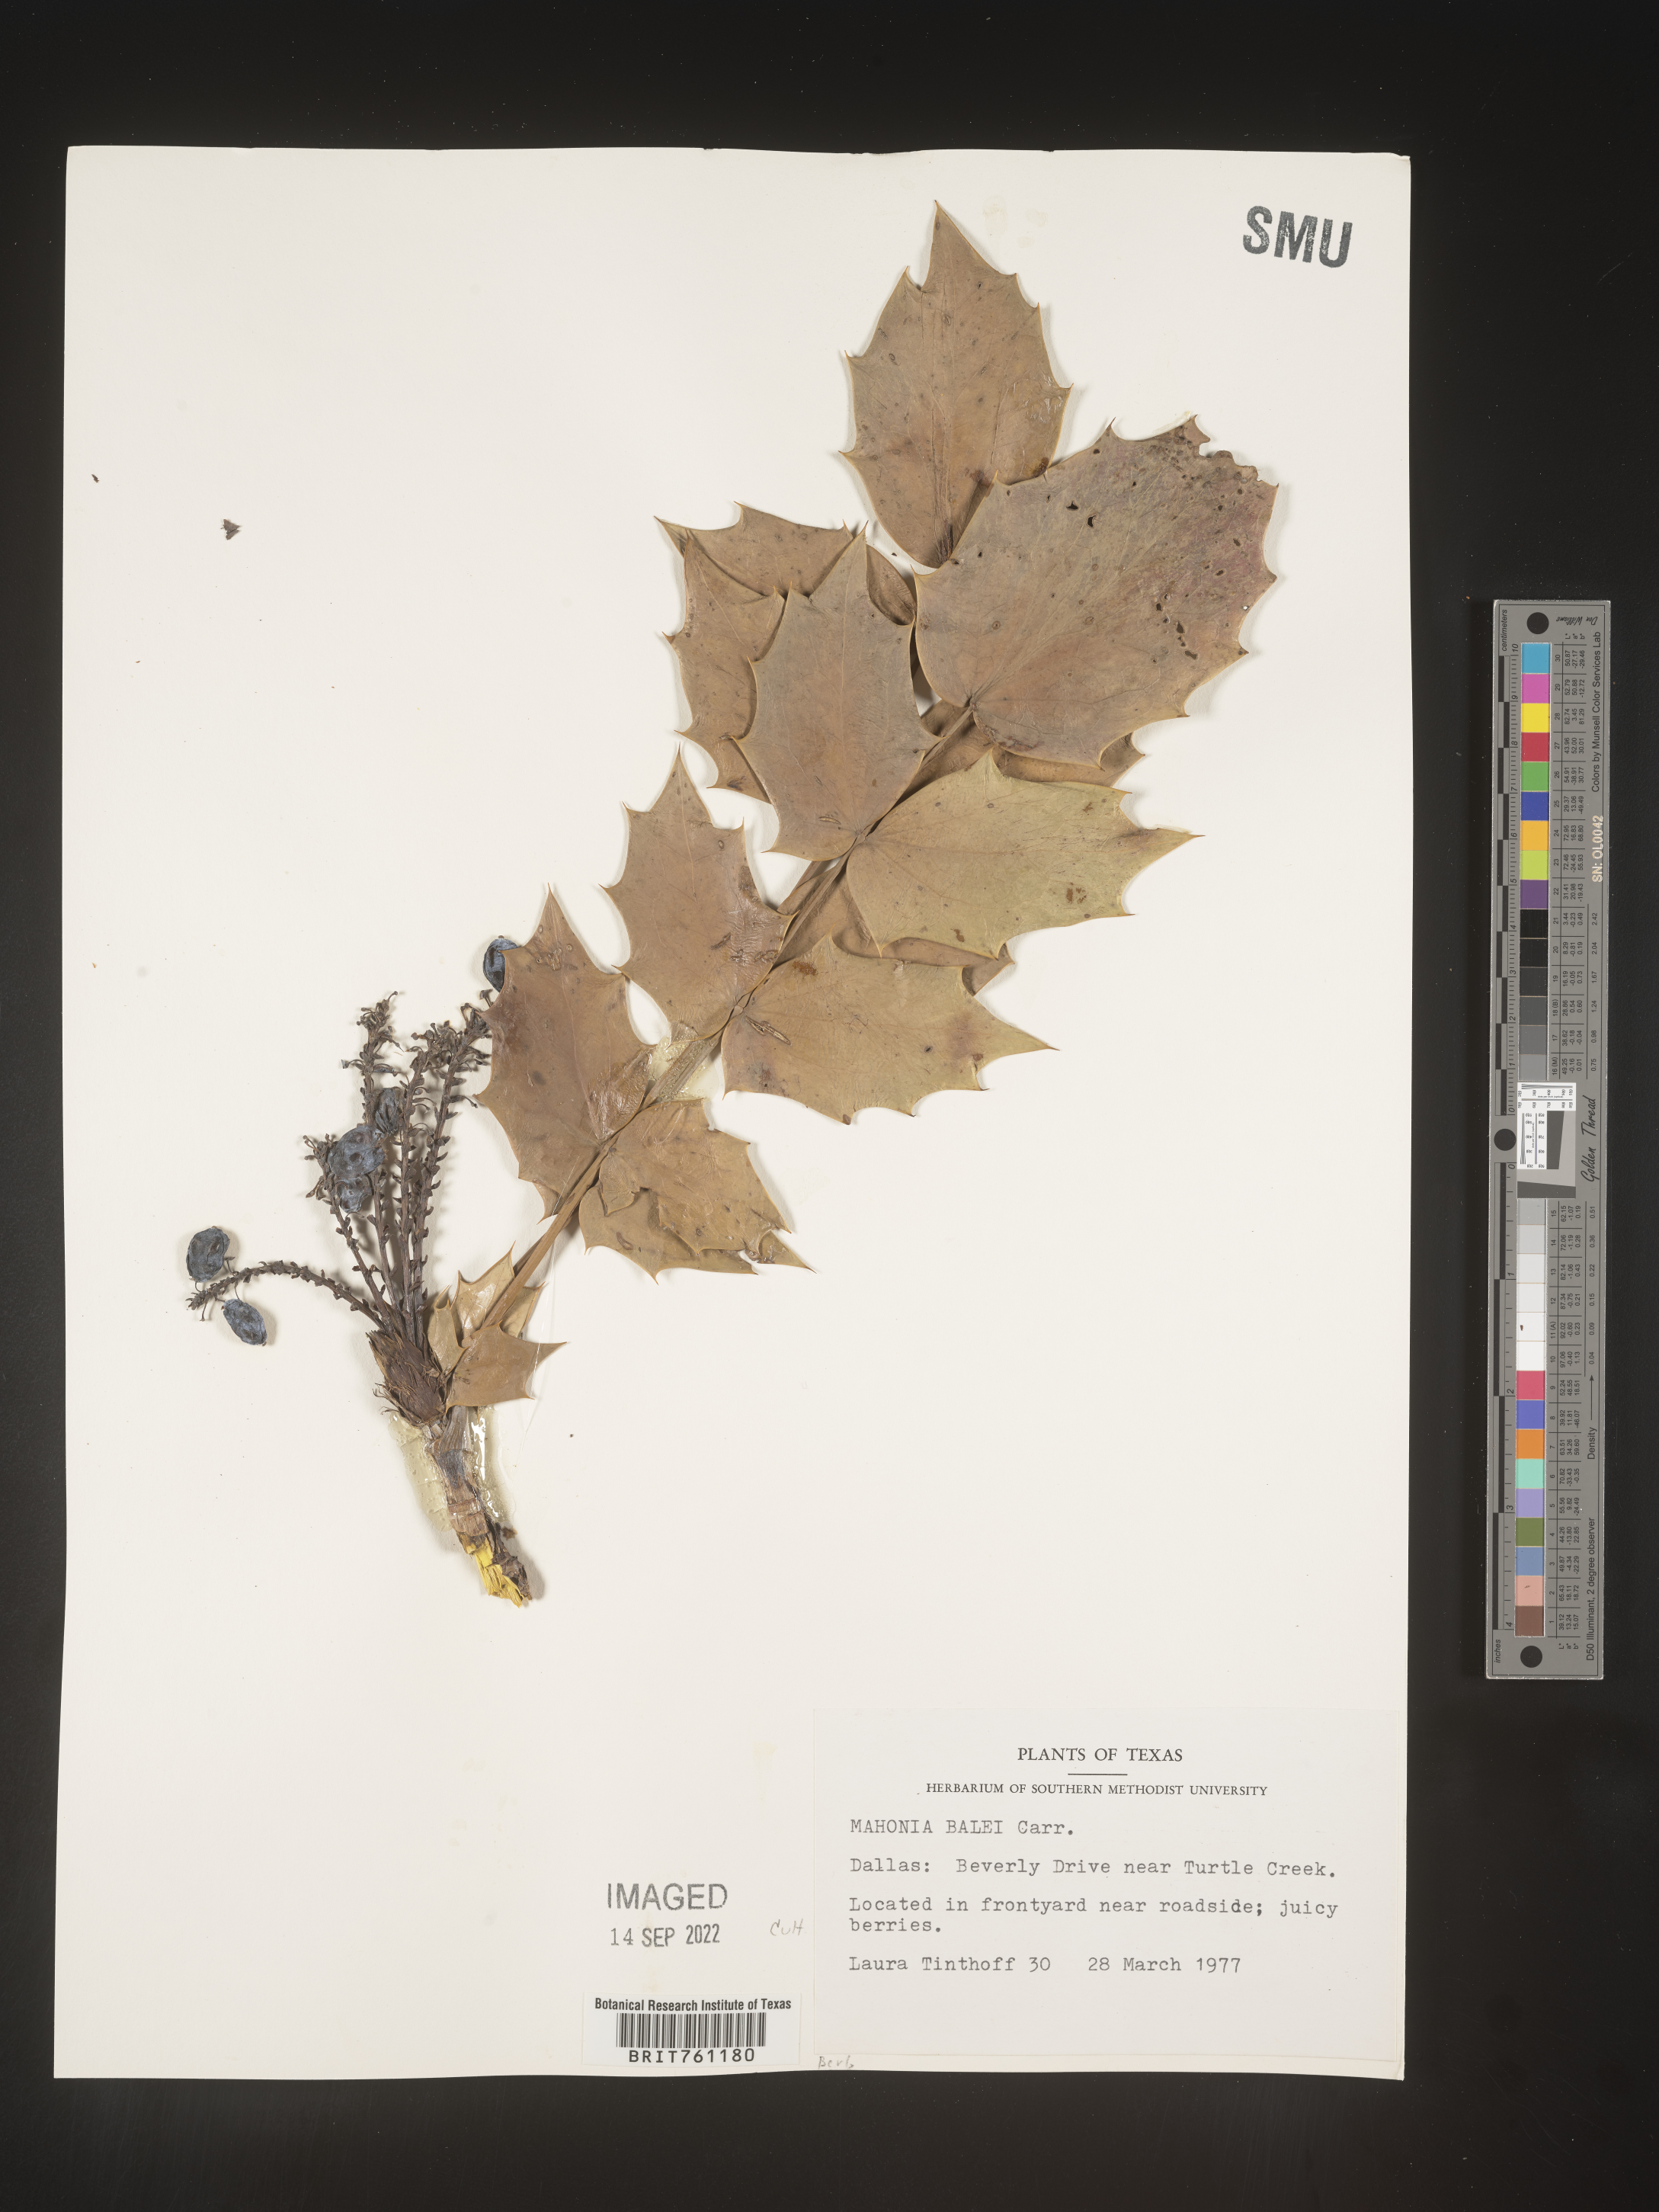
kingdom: Plantae
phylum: Tracheophyta
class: Magnoliopsida
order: Ranunculales
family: Berberidaceae
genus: Mahonia
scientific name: Mahonia
